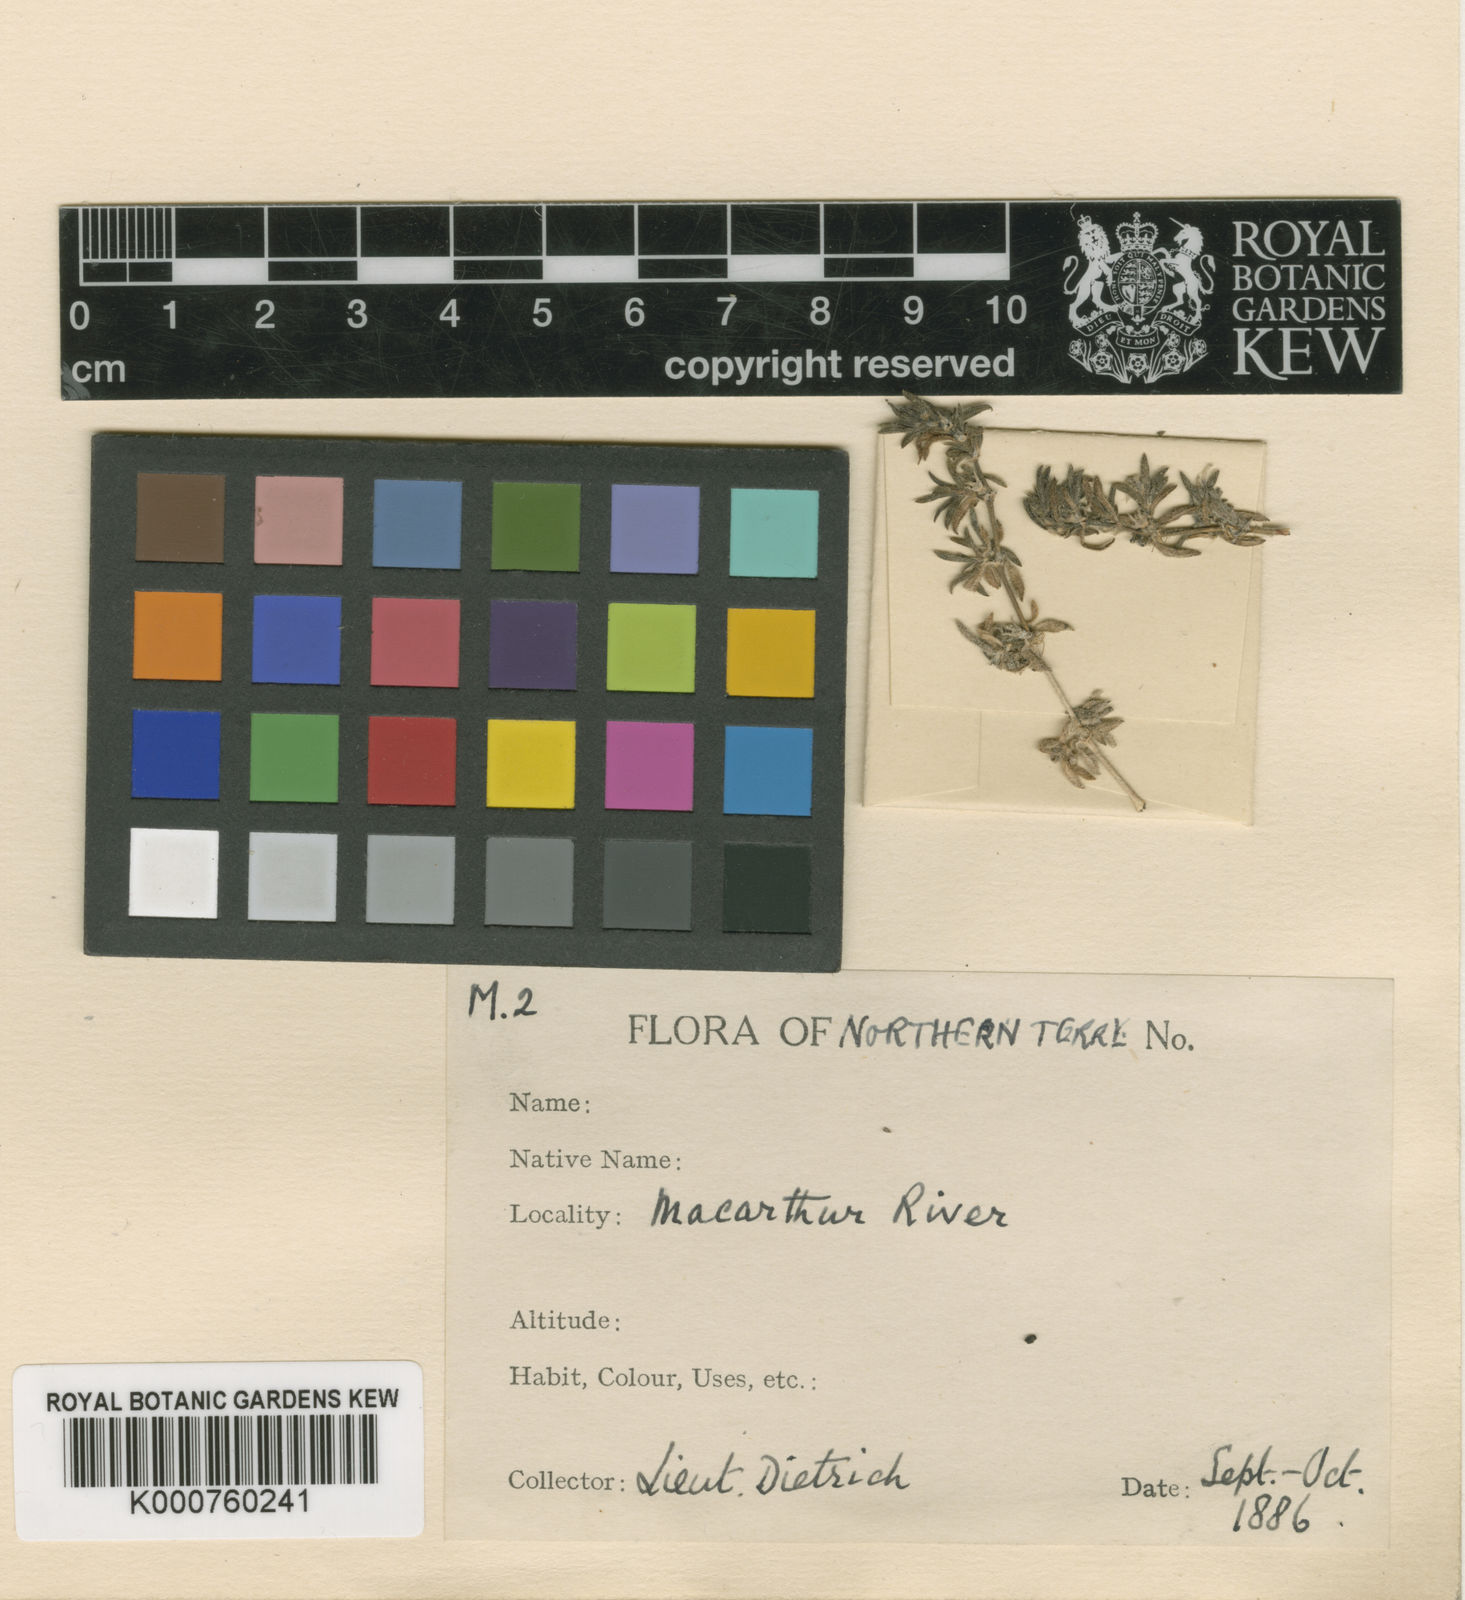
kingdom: Plantae
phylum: Tracheophyta
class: Magnoliopsida
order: Gentianales
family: Rubiaceae
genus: Dentella
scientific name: Dentella misera
